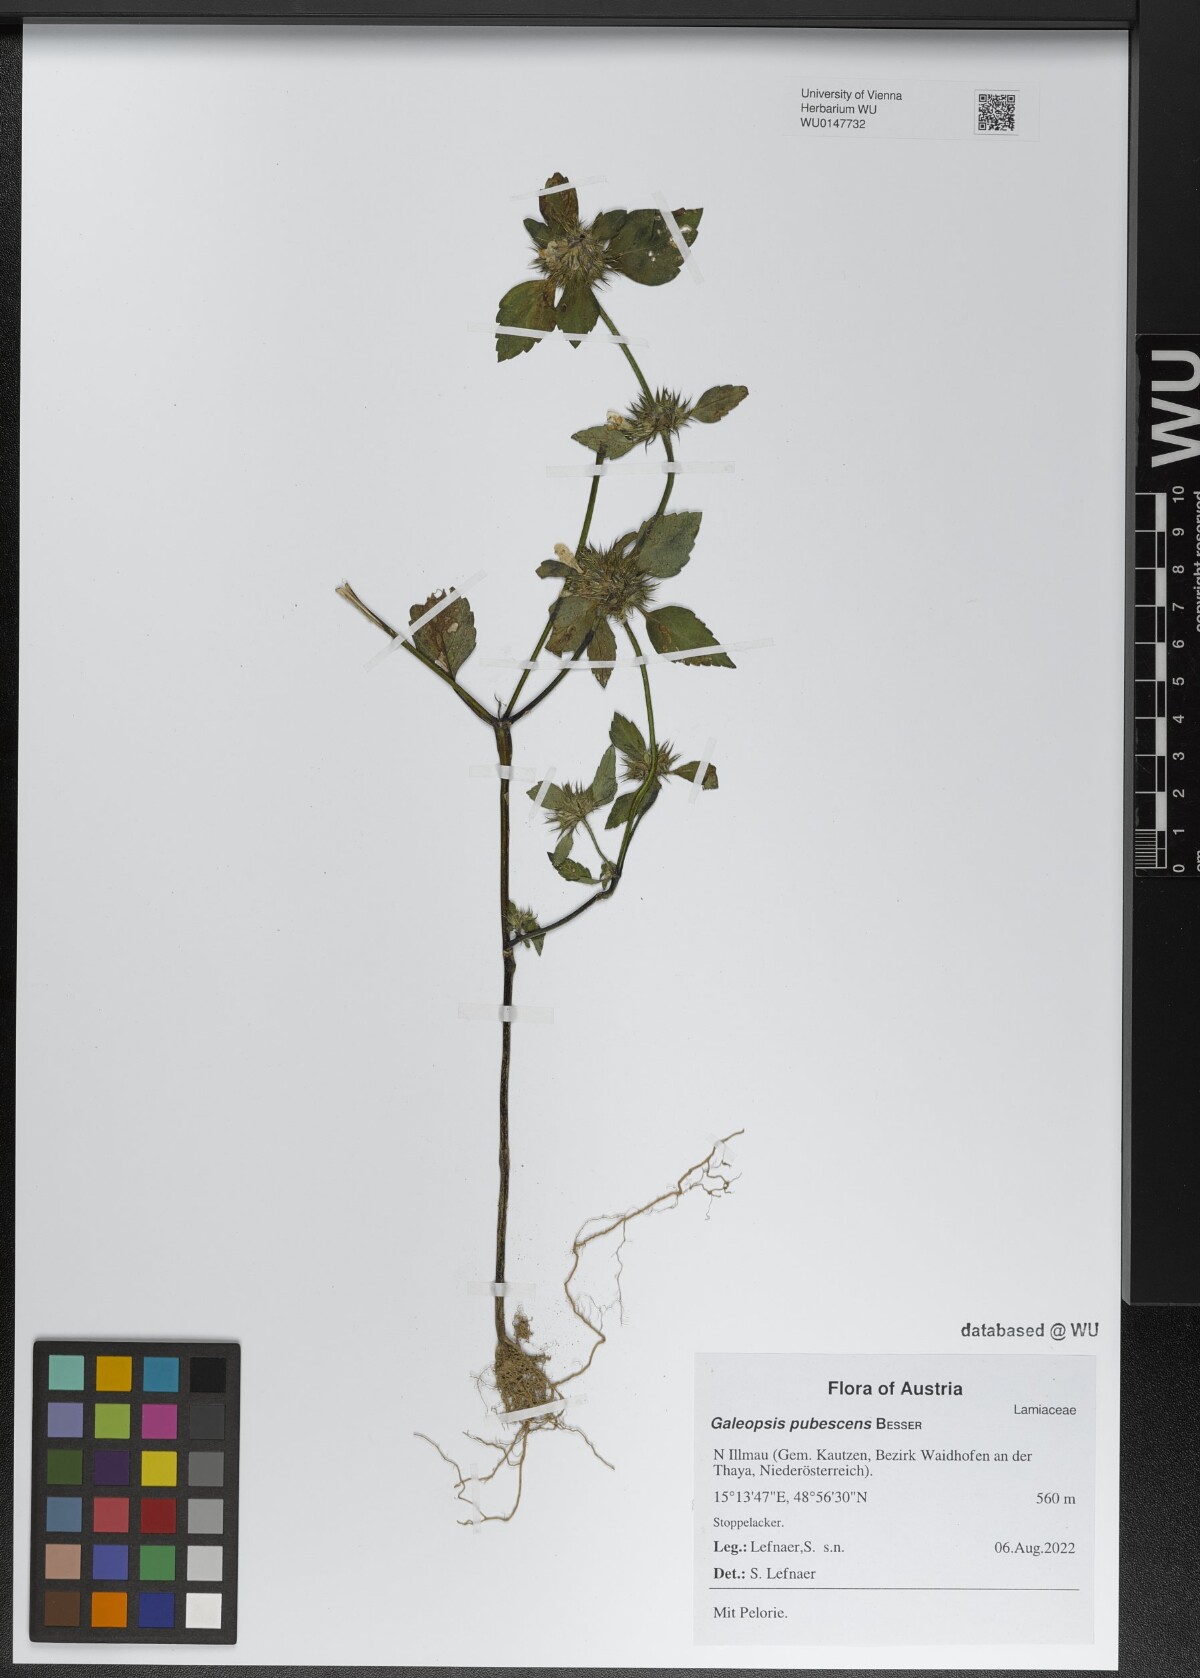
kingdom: Plantae
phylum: Tracheophyta
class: Magnoliopsida
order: Lamiales
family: Lamiaceae
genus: Galeopsis
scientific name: Galeopsis pubescens
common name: Downy hemp-nettle
